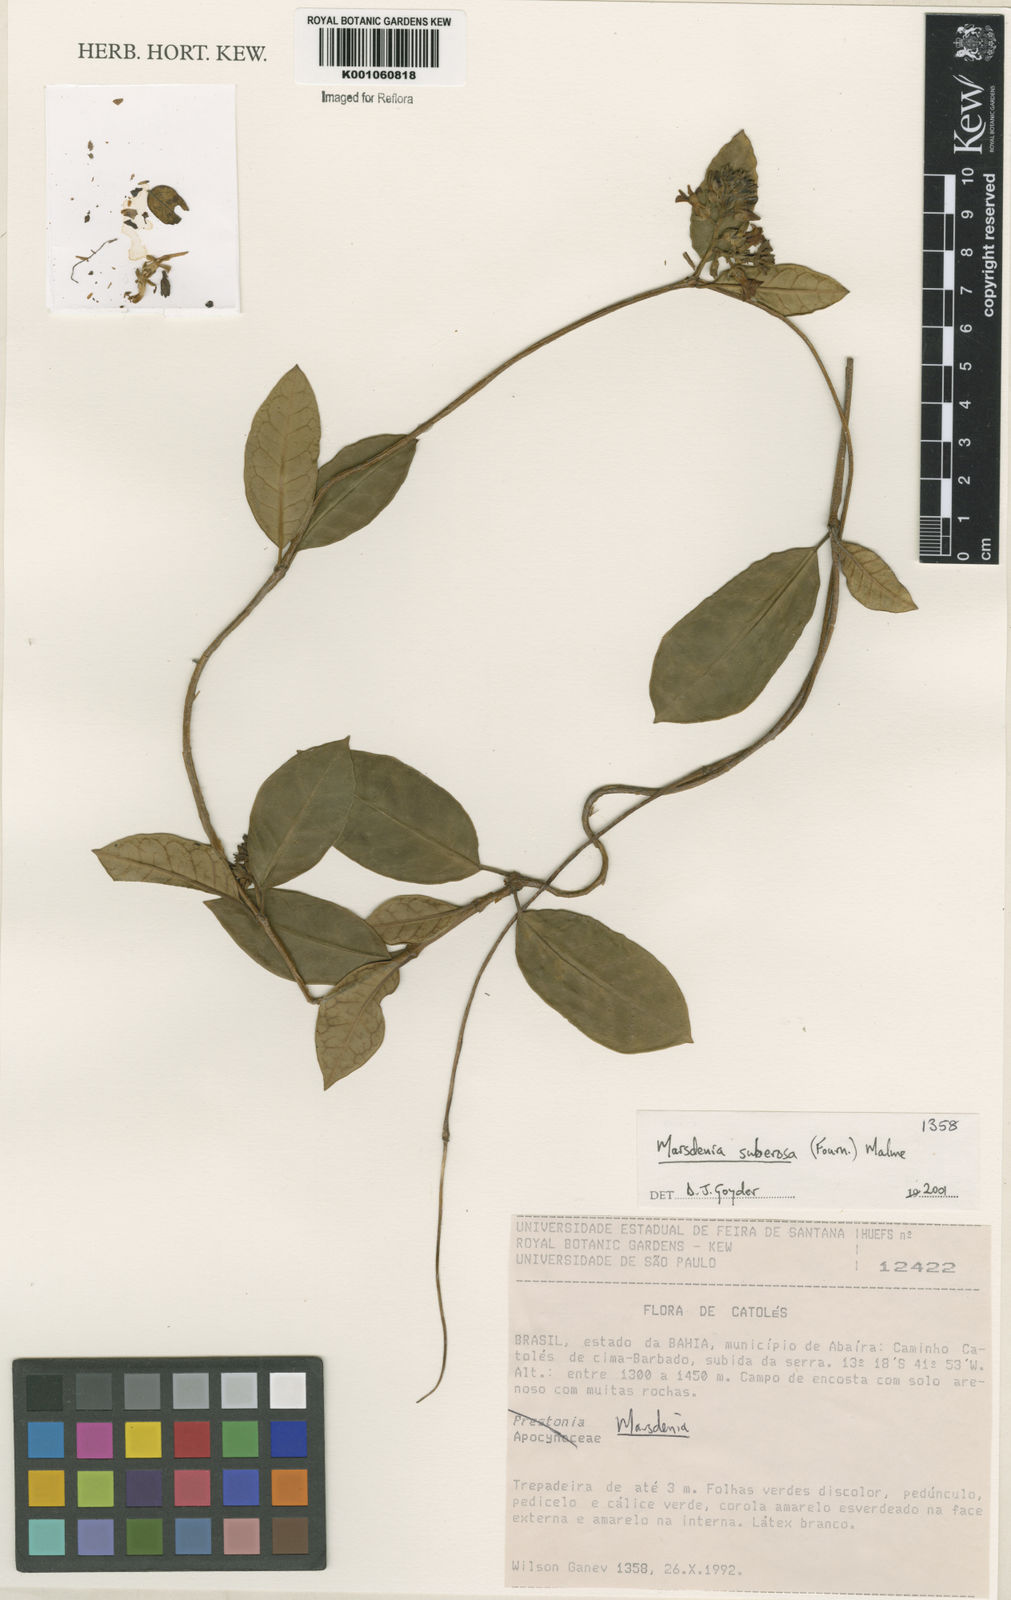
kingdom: Plantae
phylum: Tracheophyta
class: Magnoliopsida
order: Gentianales
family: Apocynaceae
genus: Ruehssia
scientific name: Ruehssia suberosa
